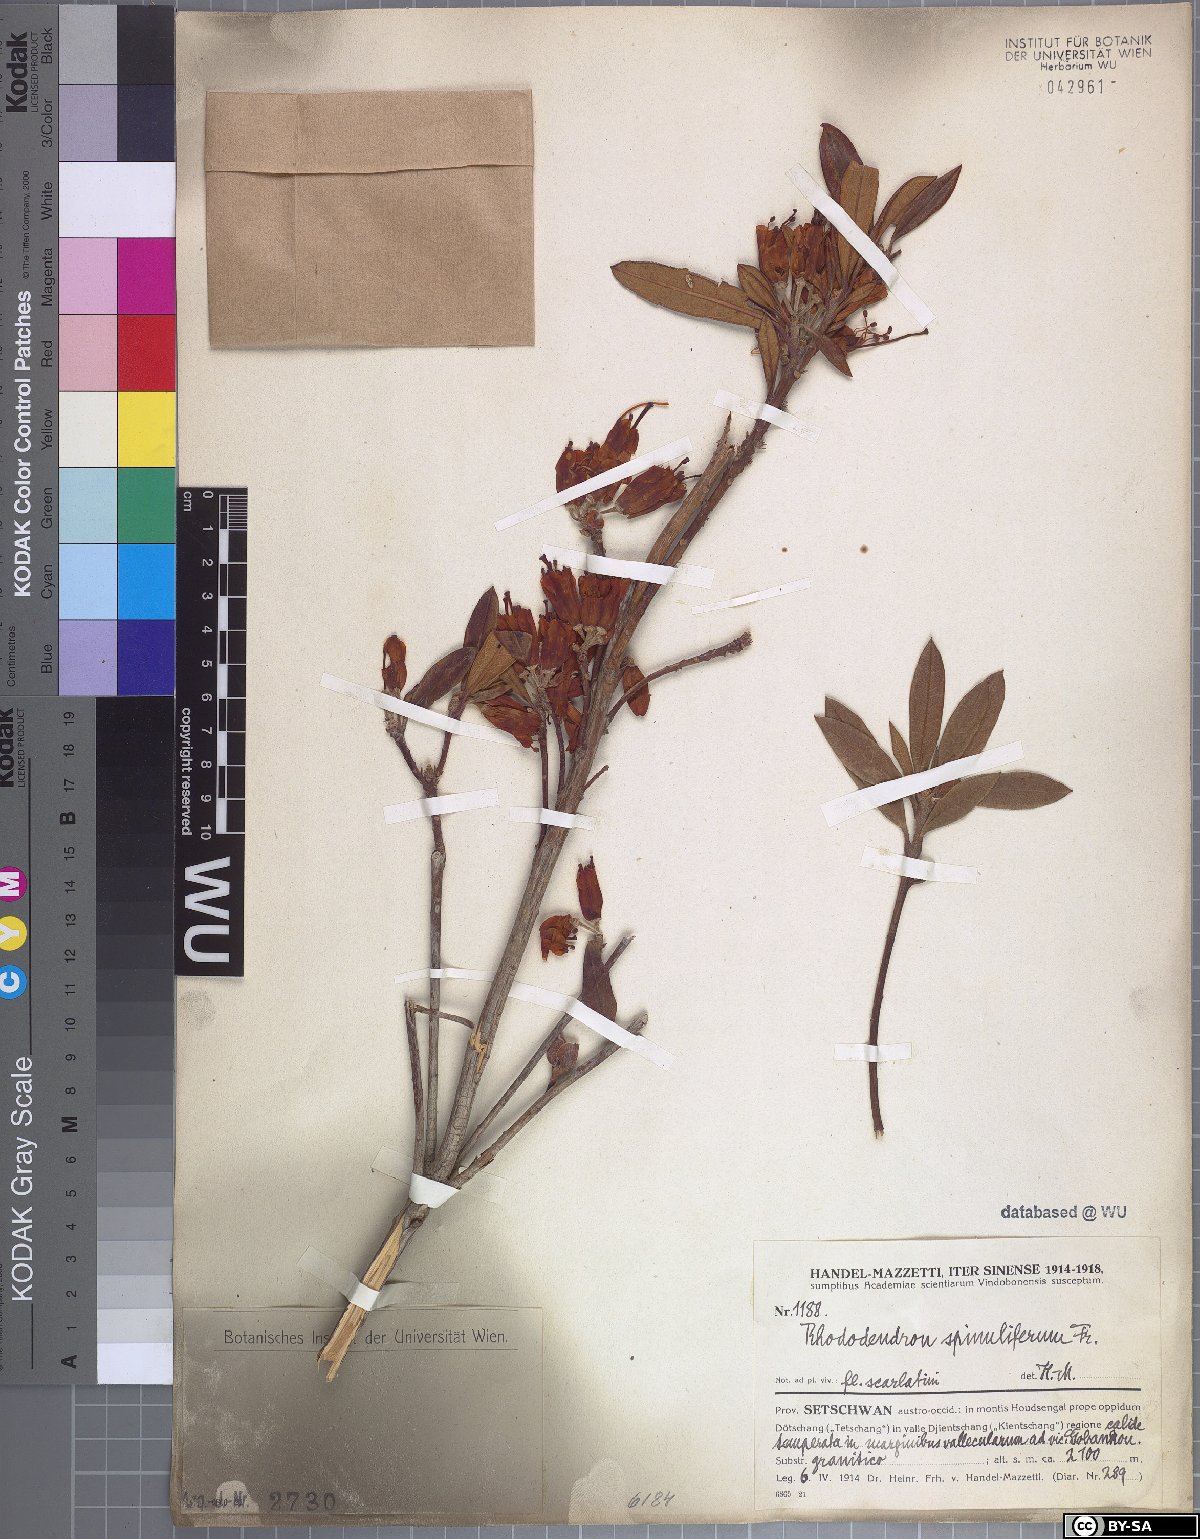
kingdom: Plantae
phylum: Tracheophyta
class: Magnoliopsida
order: Ericales
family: Ericaceae
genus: Rhododendron
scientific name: Rhododendron spinuliferum
